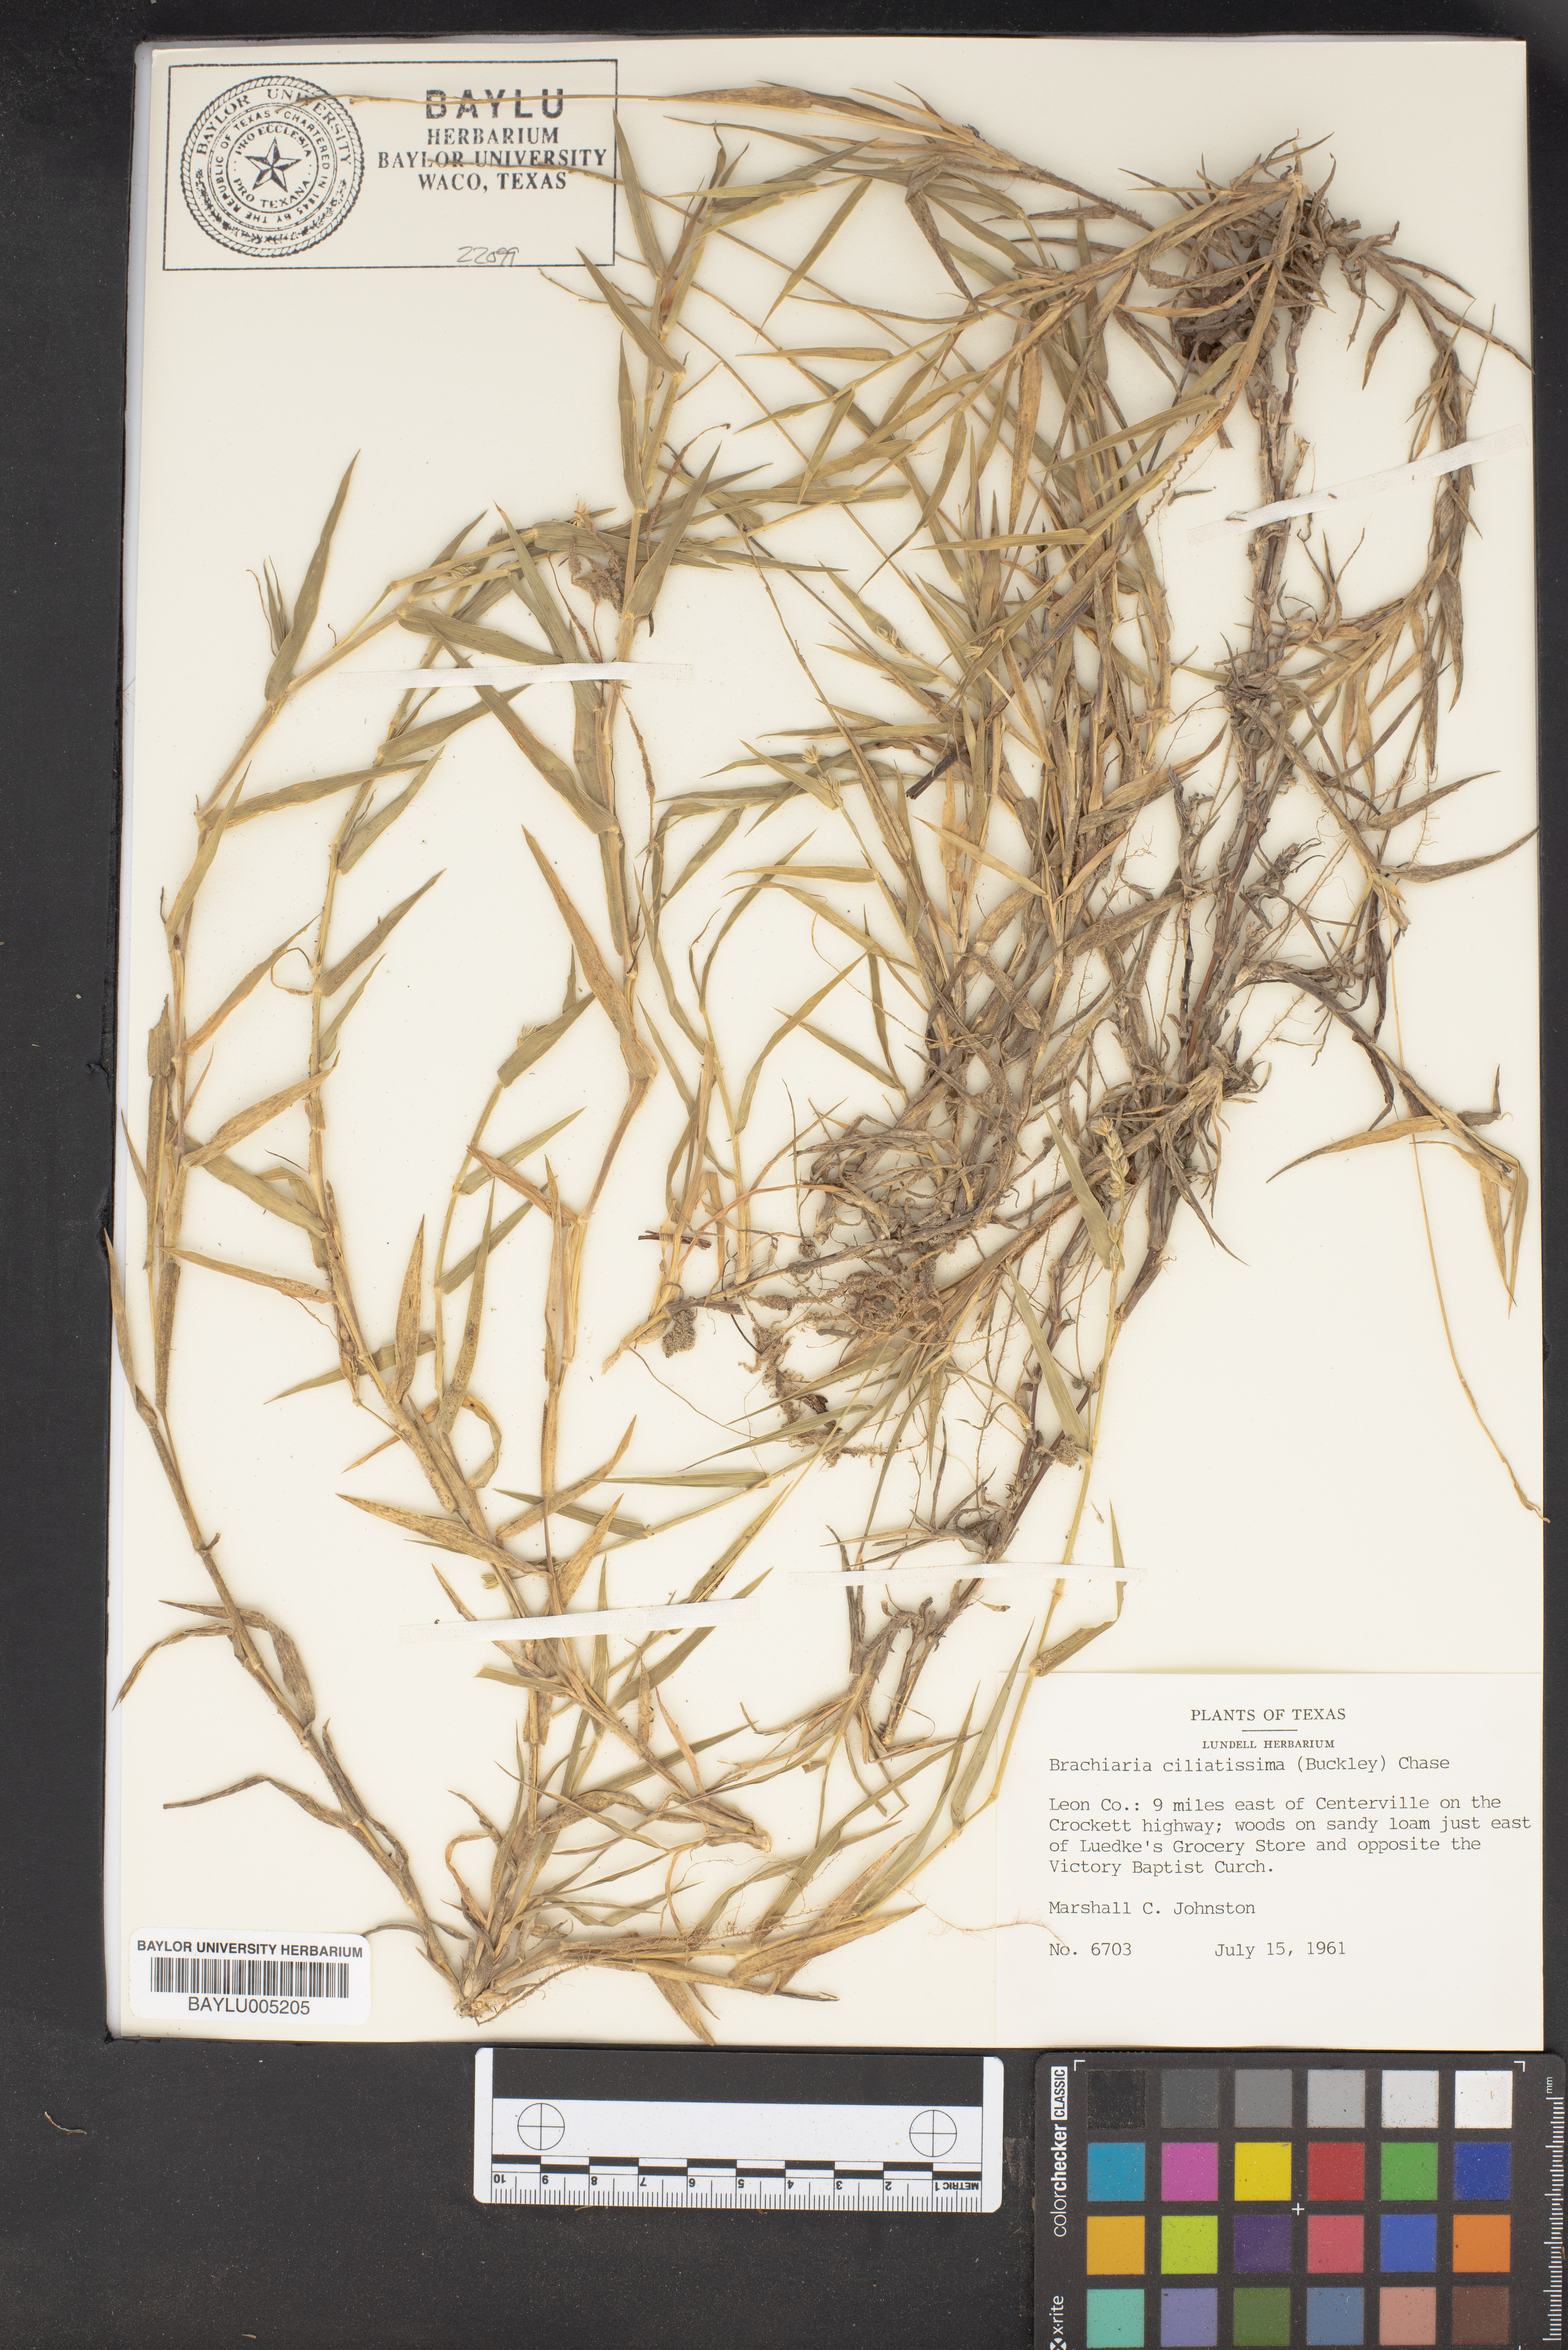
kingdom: Plantae
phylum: Tracheophyta
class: Liliopsida
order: Poales
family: Poaceae
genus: Urochloa
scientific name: Urochloa ciliatissima
